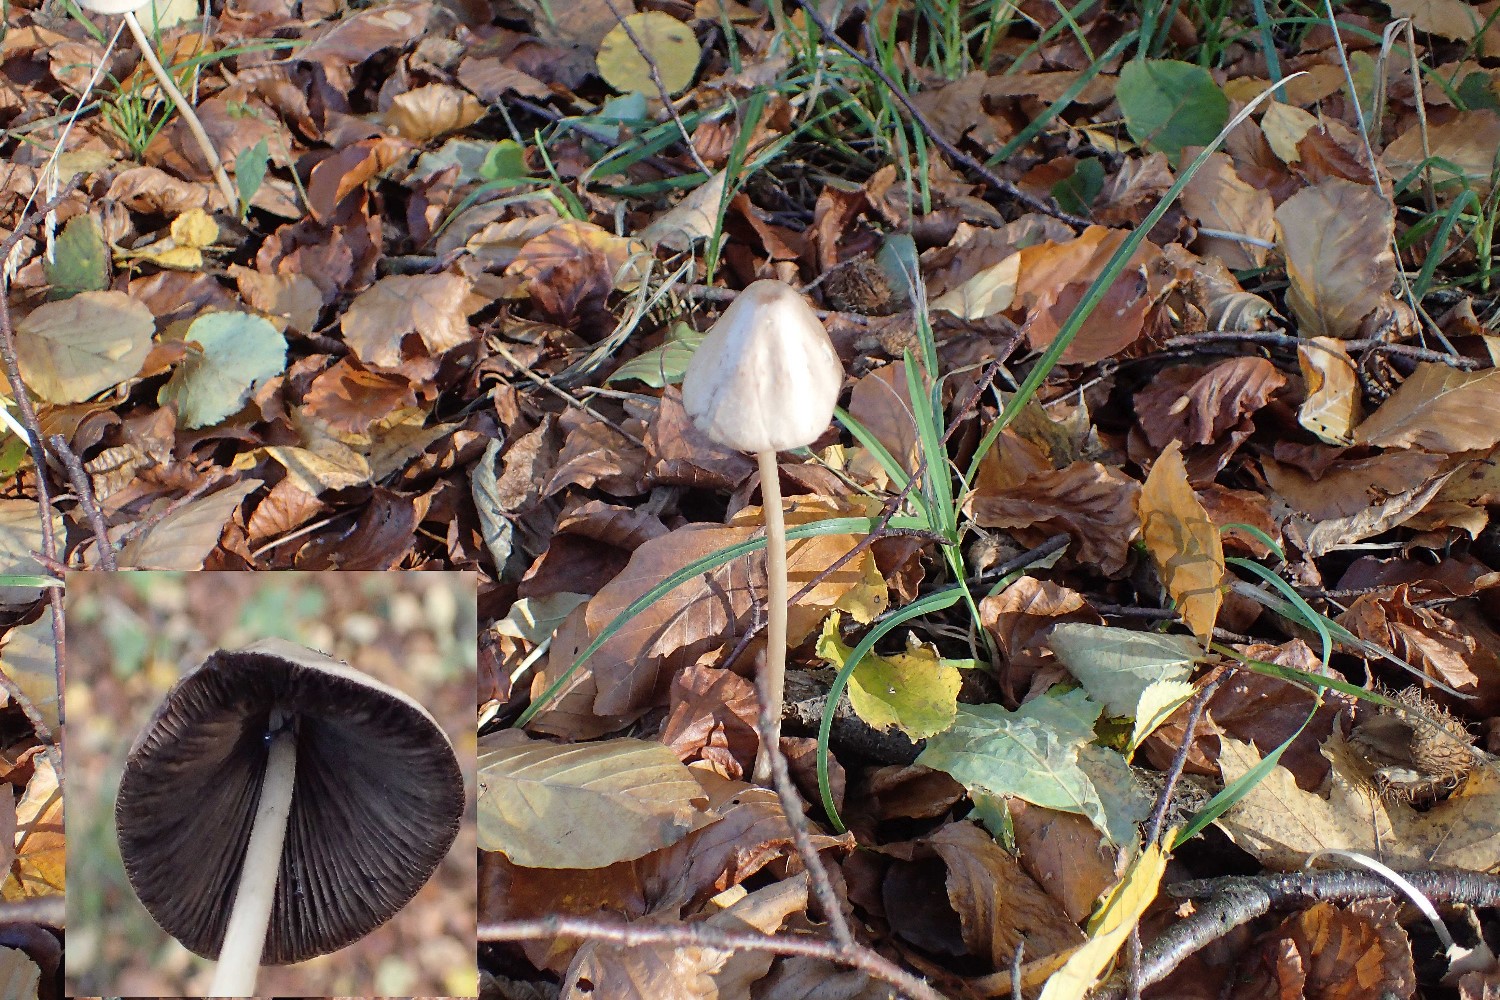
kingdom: Fungi
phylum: Basidiomycota
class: Agaricomycetes
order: Agaricales
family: Psathyrellaceae
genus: Parasola
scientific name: Parasola conopilea
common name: kegle-hjulhat
